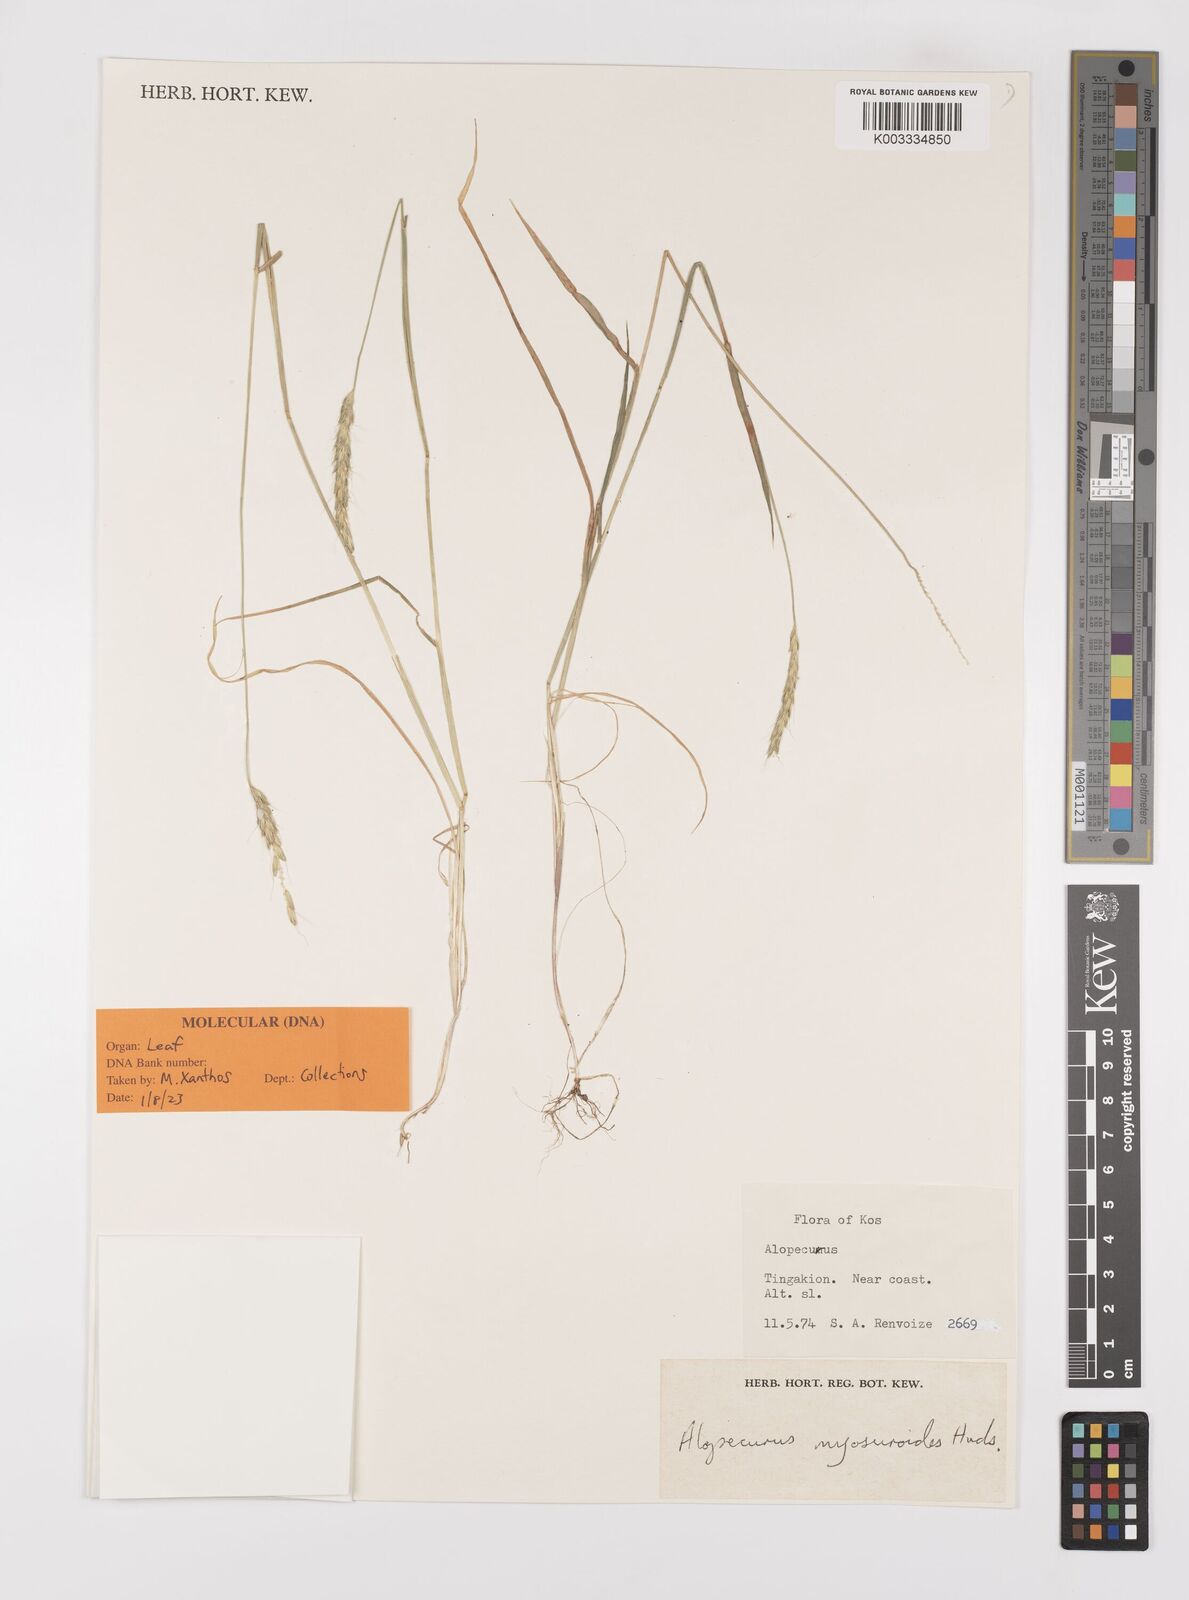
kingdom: Plantae
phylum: Tracheophyta
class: Liliopsida
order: Poales
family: Poaceae
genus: Alopecurus
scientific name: Alopecurus myosuroides
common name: Black-grass
